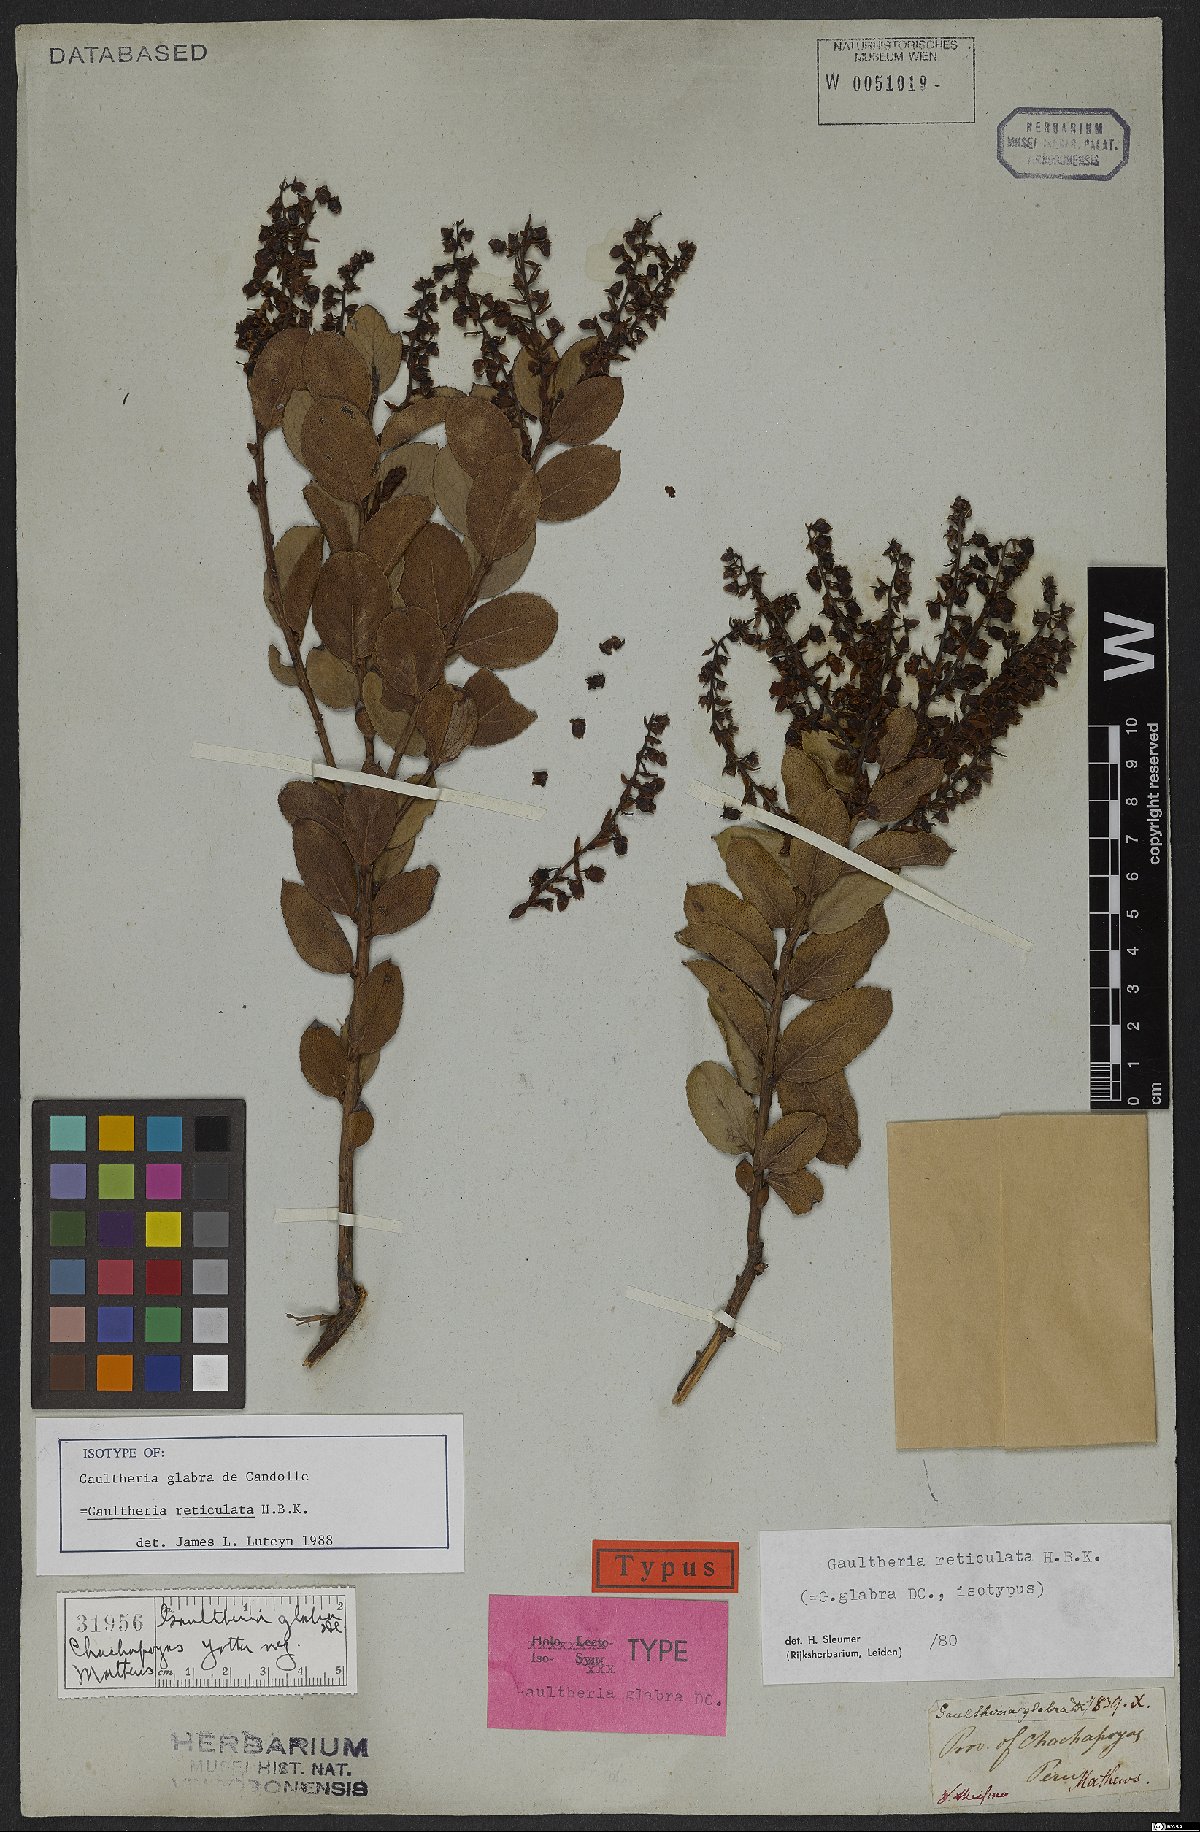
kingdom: Plantae
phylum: Tracheophyta
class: Magnoliopsida
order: Ericales
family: Ericaceae
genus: Gaultheria
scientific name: Gaultheria reticulata
